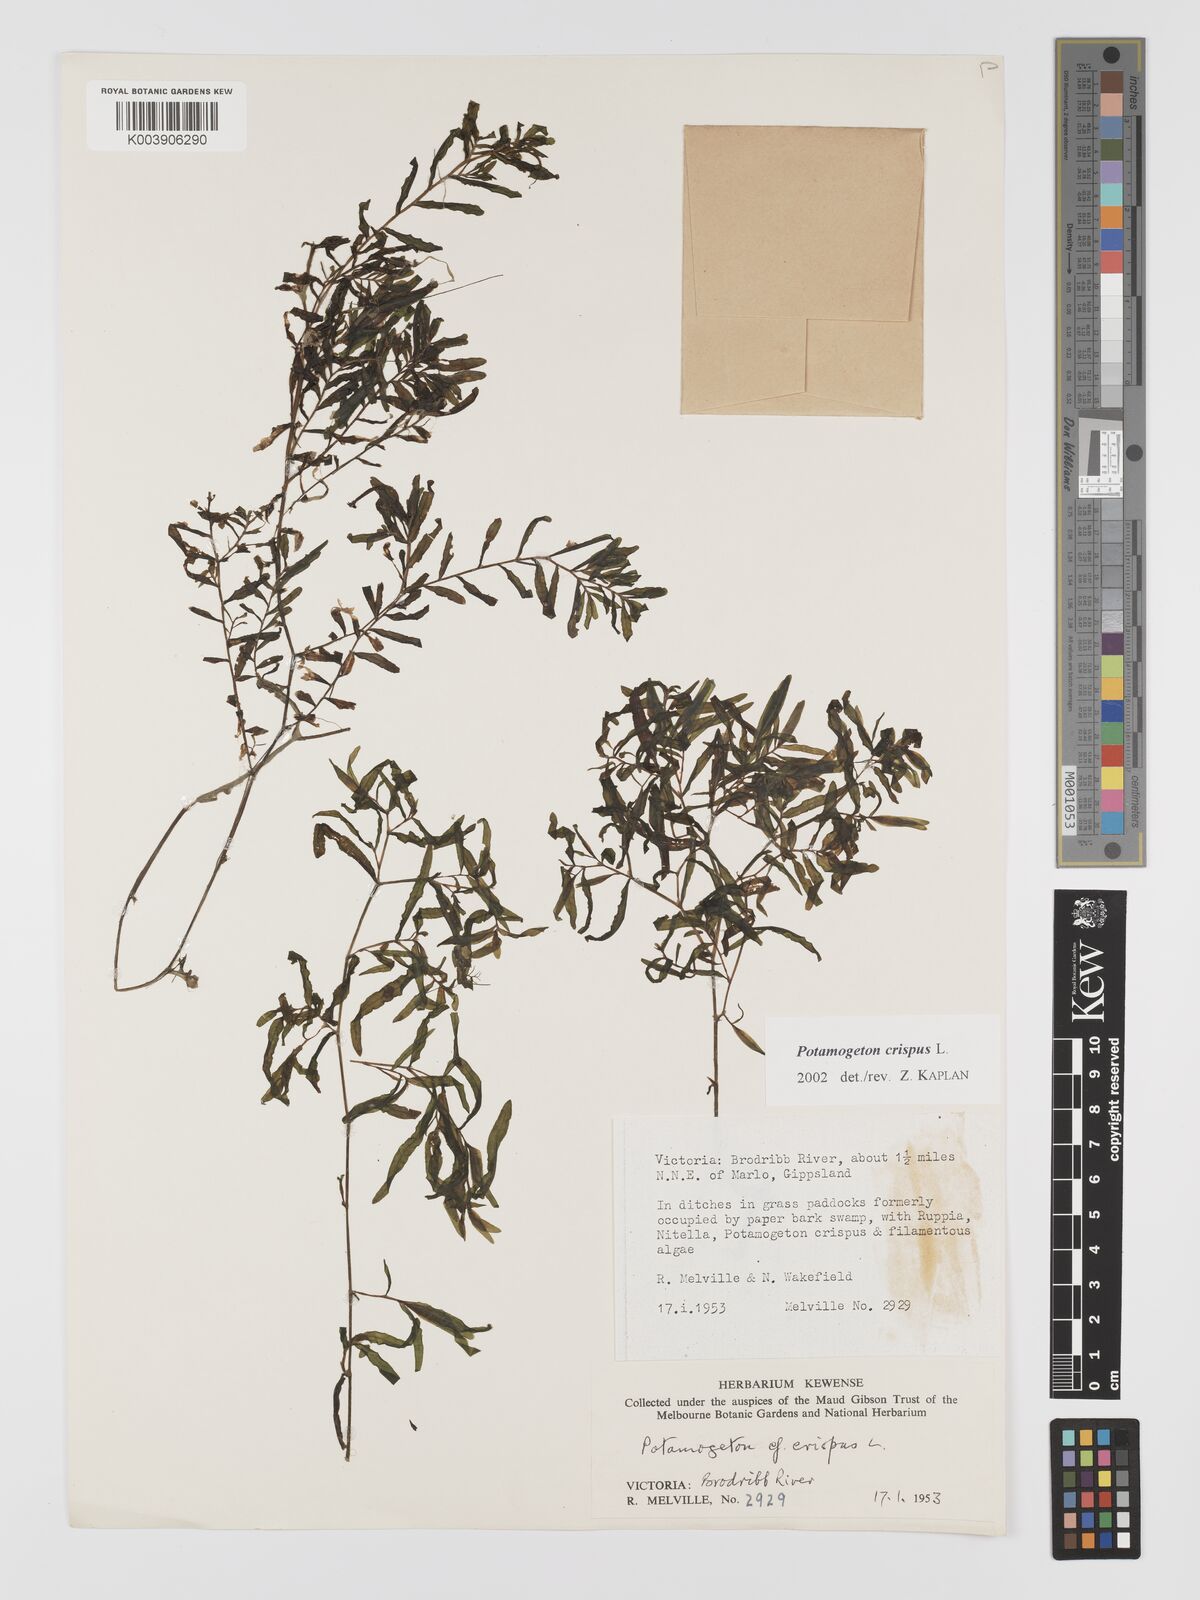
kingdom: Plantae
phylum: Tracheophyta
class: Liliopsida
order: Alismatales
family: Potamogetonaceae
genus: Potamogeton
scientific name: Potamogeton crispus
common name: Curled pondweed
